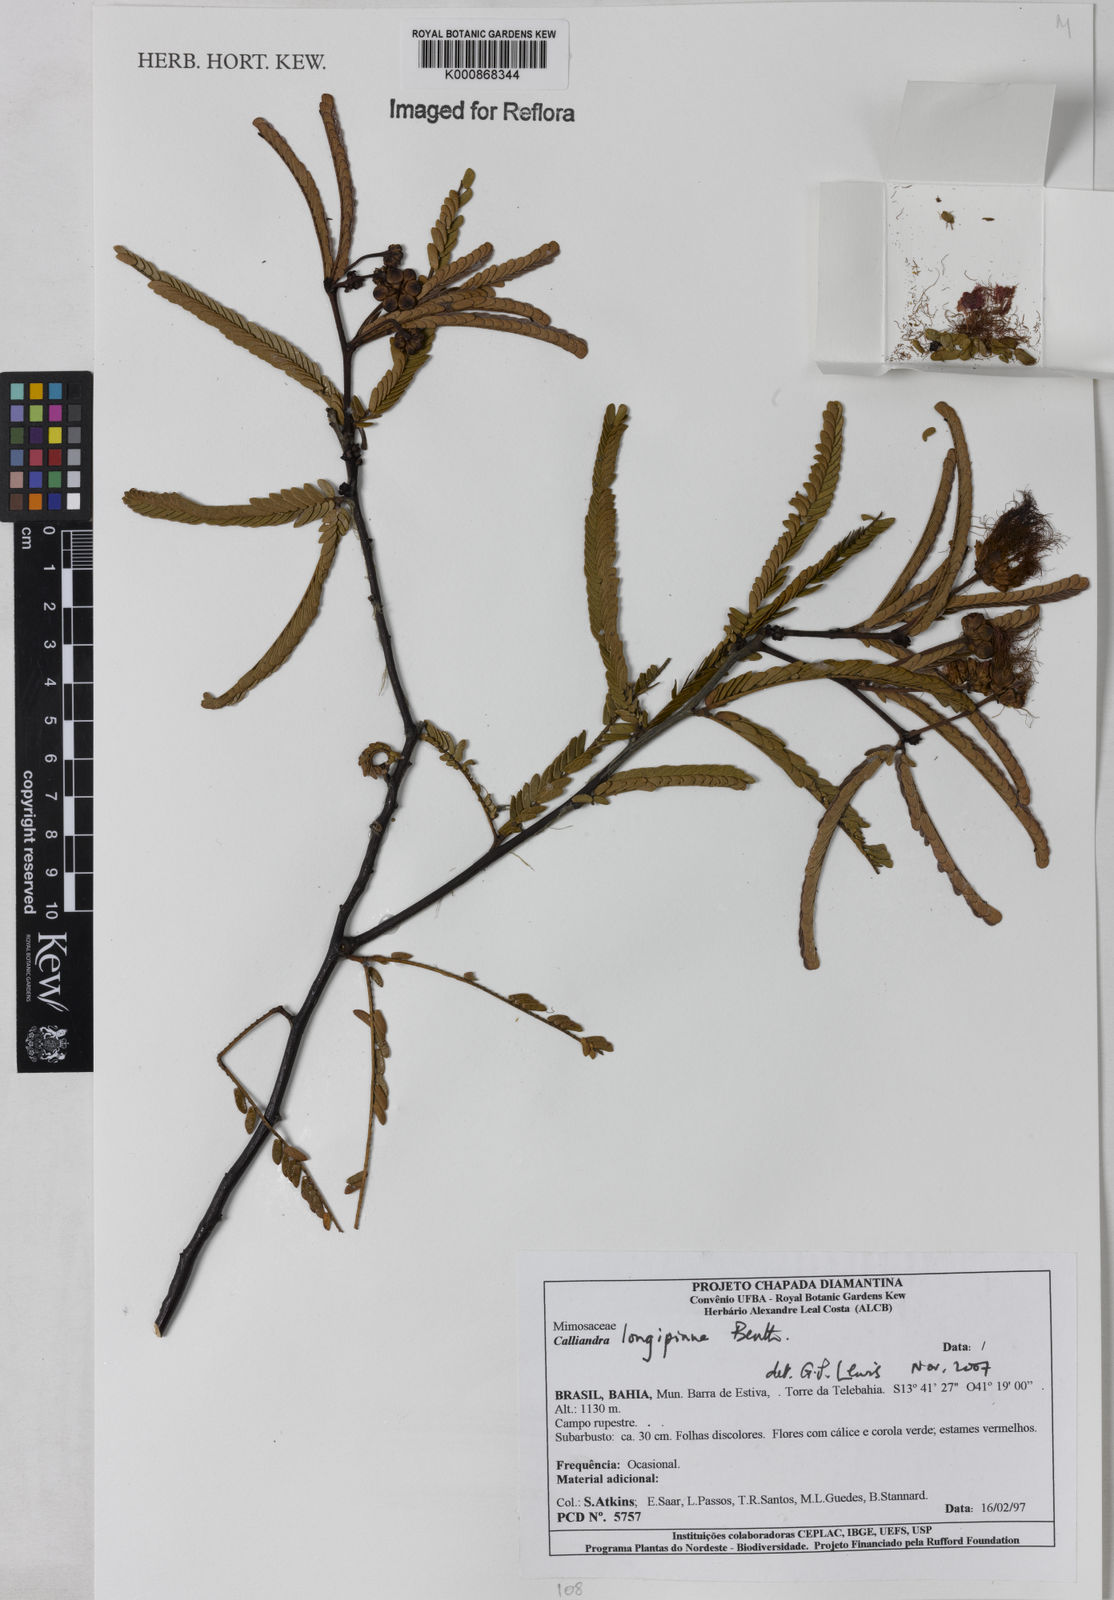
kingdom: Plantae
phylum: Tracheophyta
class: Magnoliopsida
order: Fabales
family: Fabaceae
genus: Calliandra
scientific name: Calliandra longipinna
